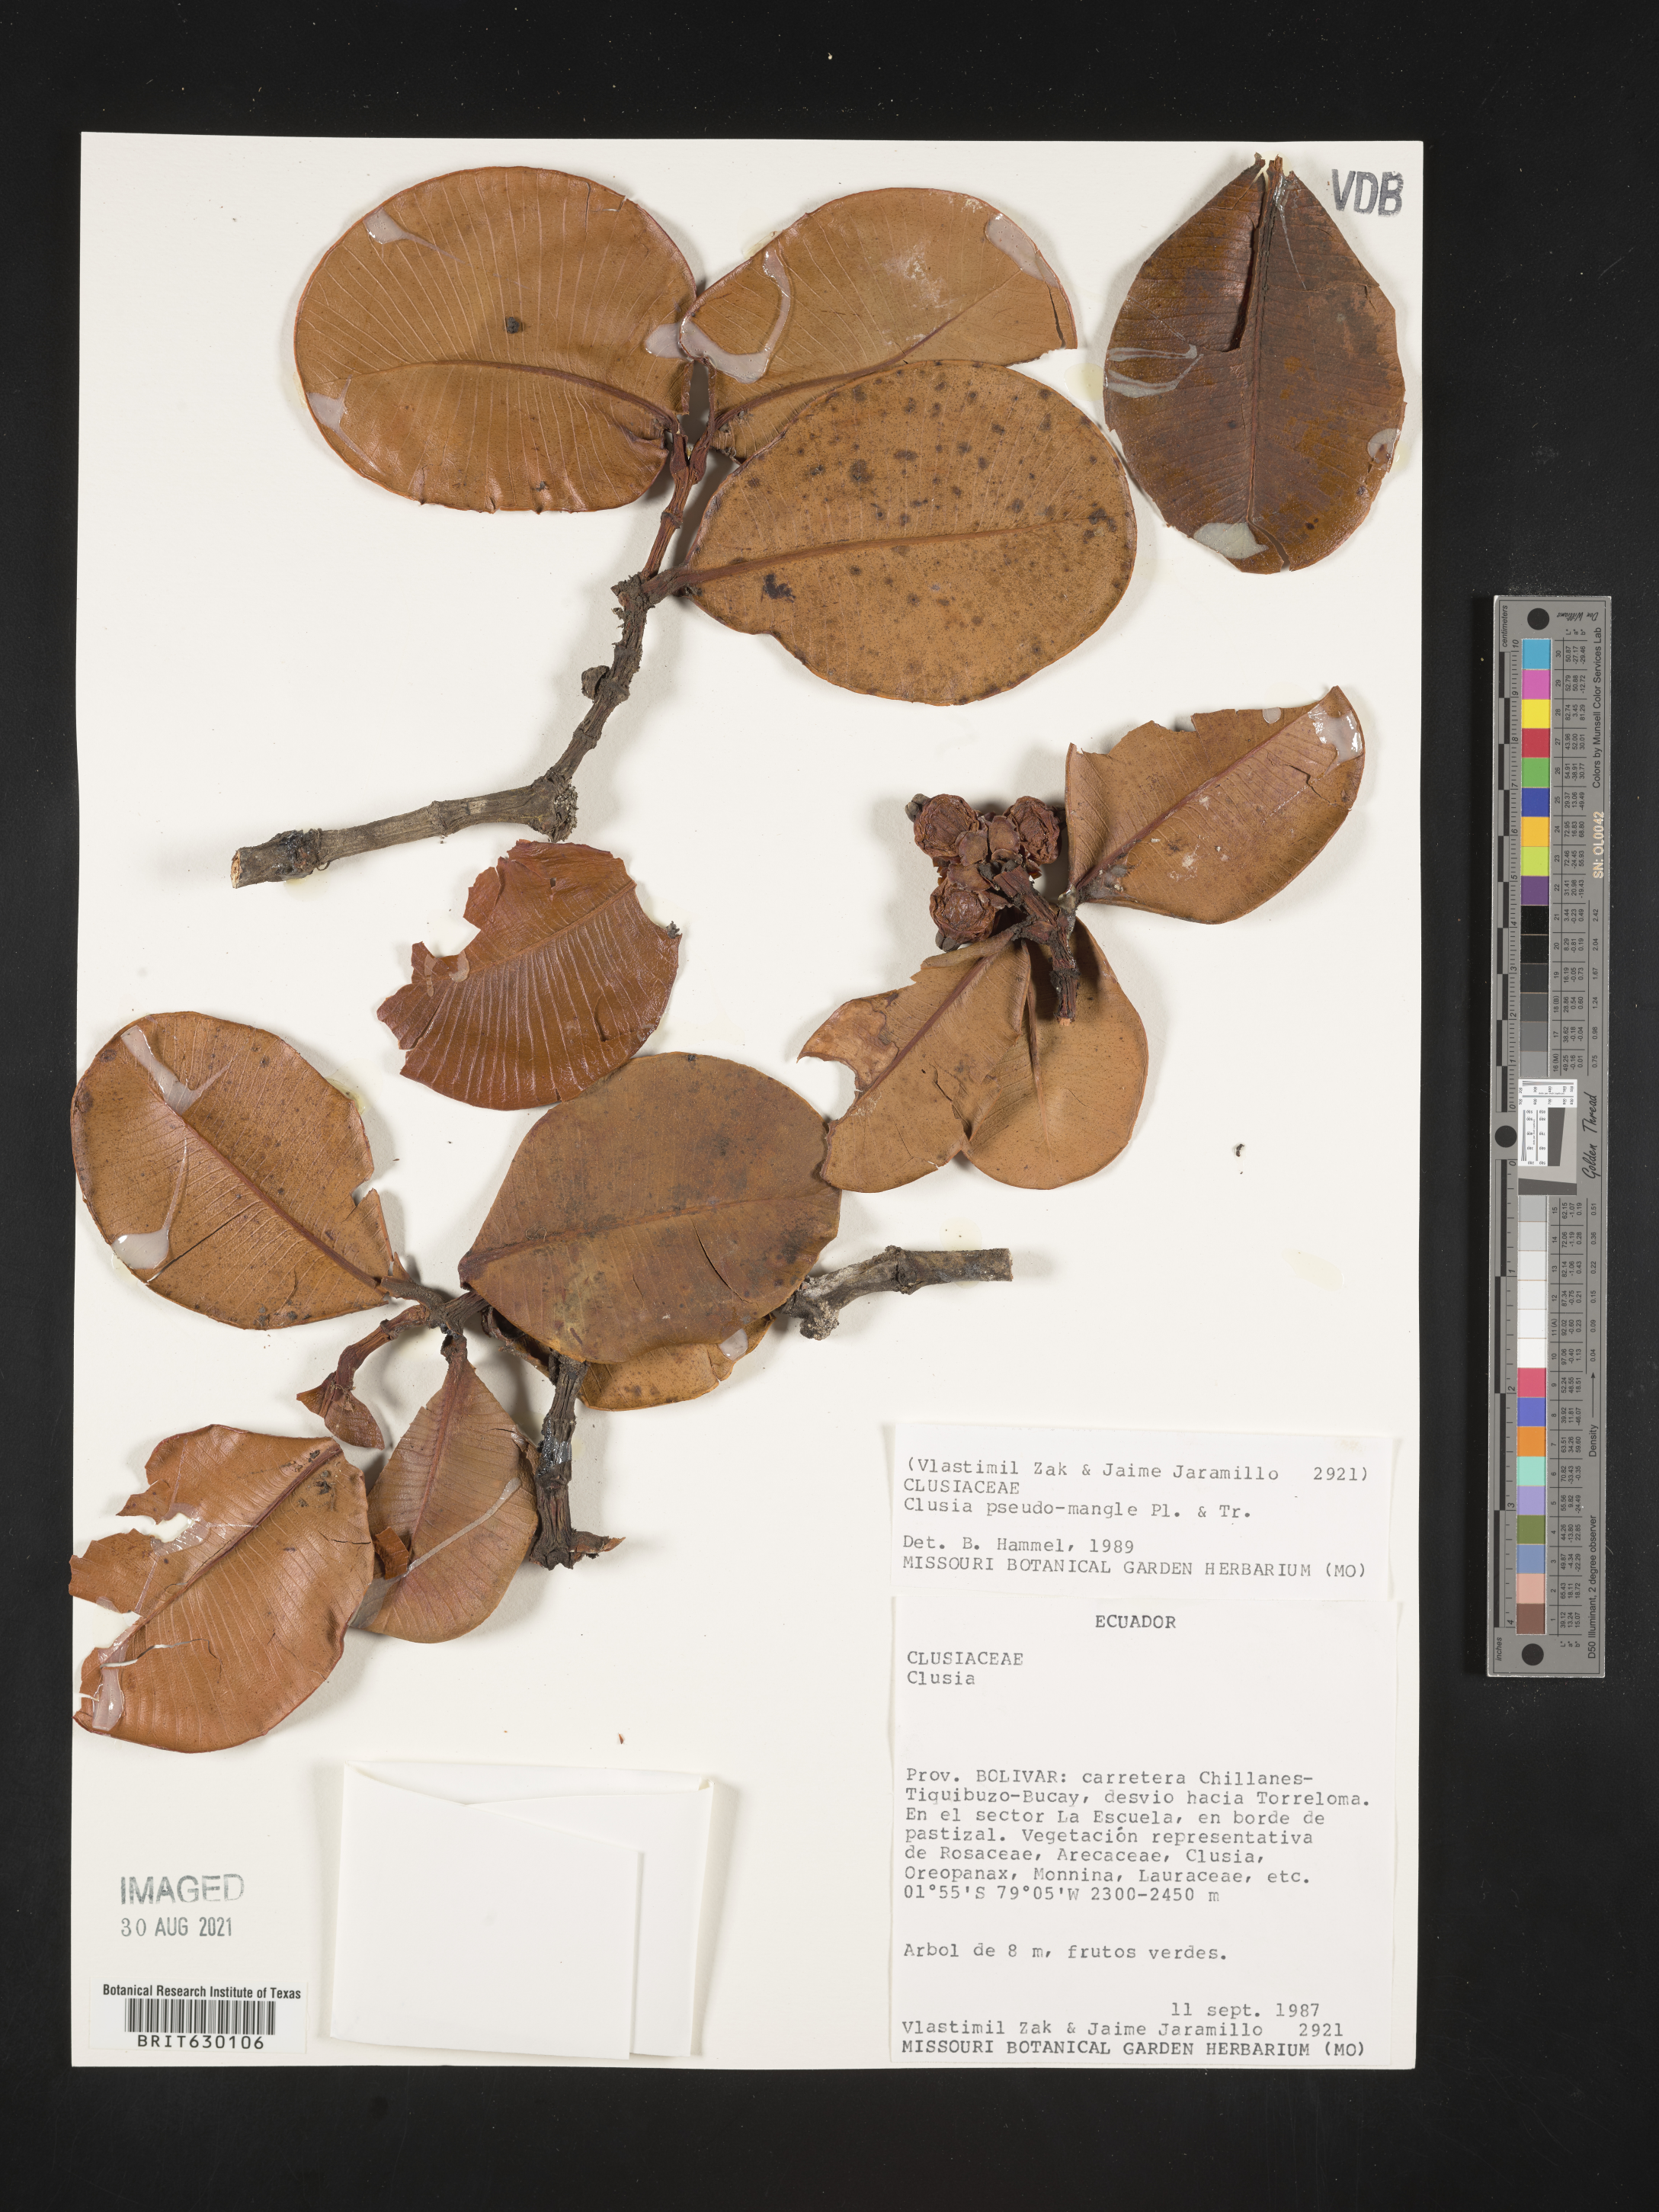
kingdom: Plantae
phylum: Tracheophyta
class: Magnoliopsida
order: Malpighiales
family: Clusiaceae
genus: Clusia
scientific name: Clusia pseudomangle
